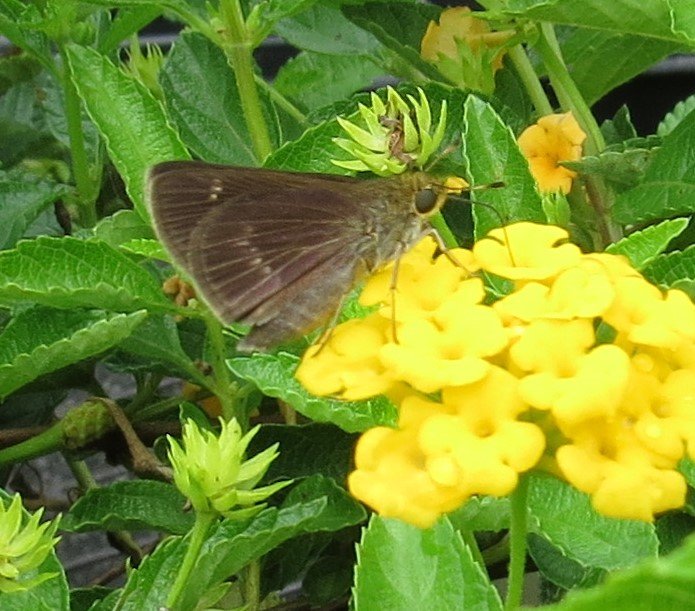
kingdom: Animalia
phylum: Arthropoda
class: Insecta
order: Lepidoptera
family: Hesperiidae
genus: Polites
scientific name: Polites
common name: Crossline Skipper
